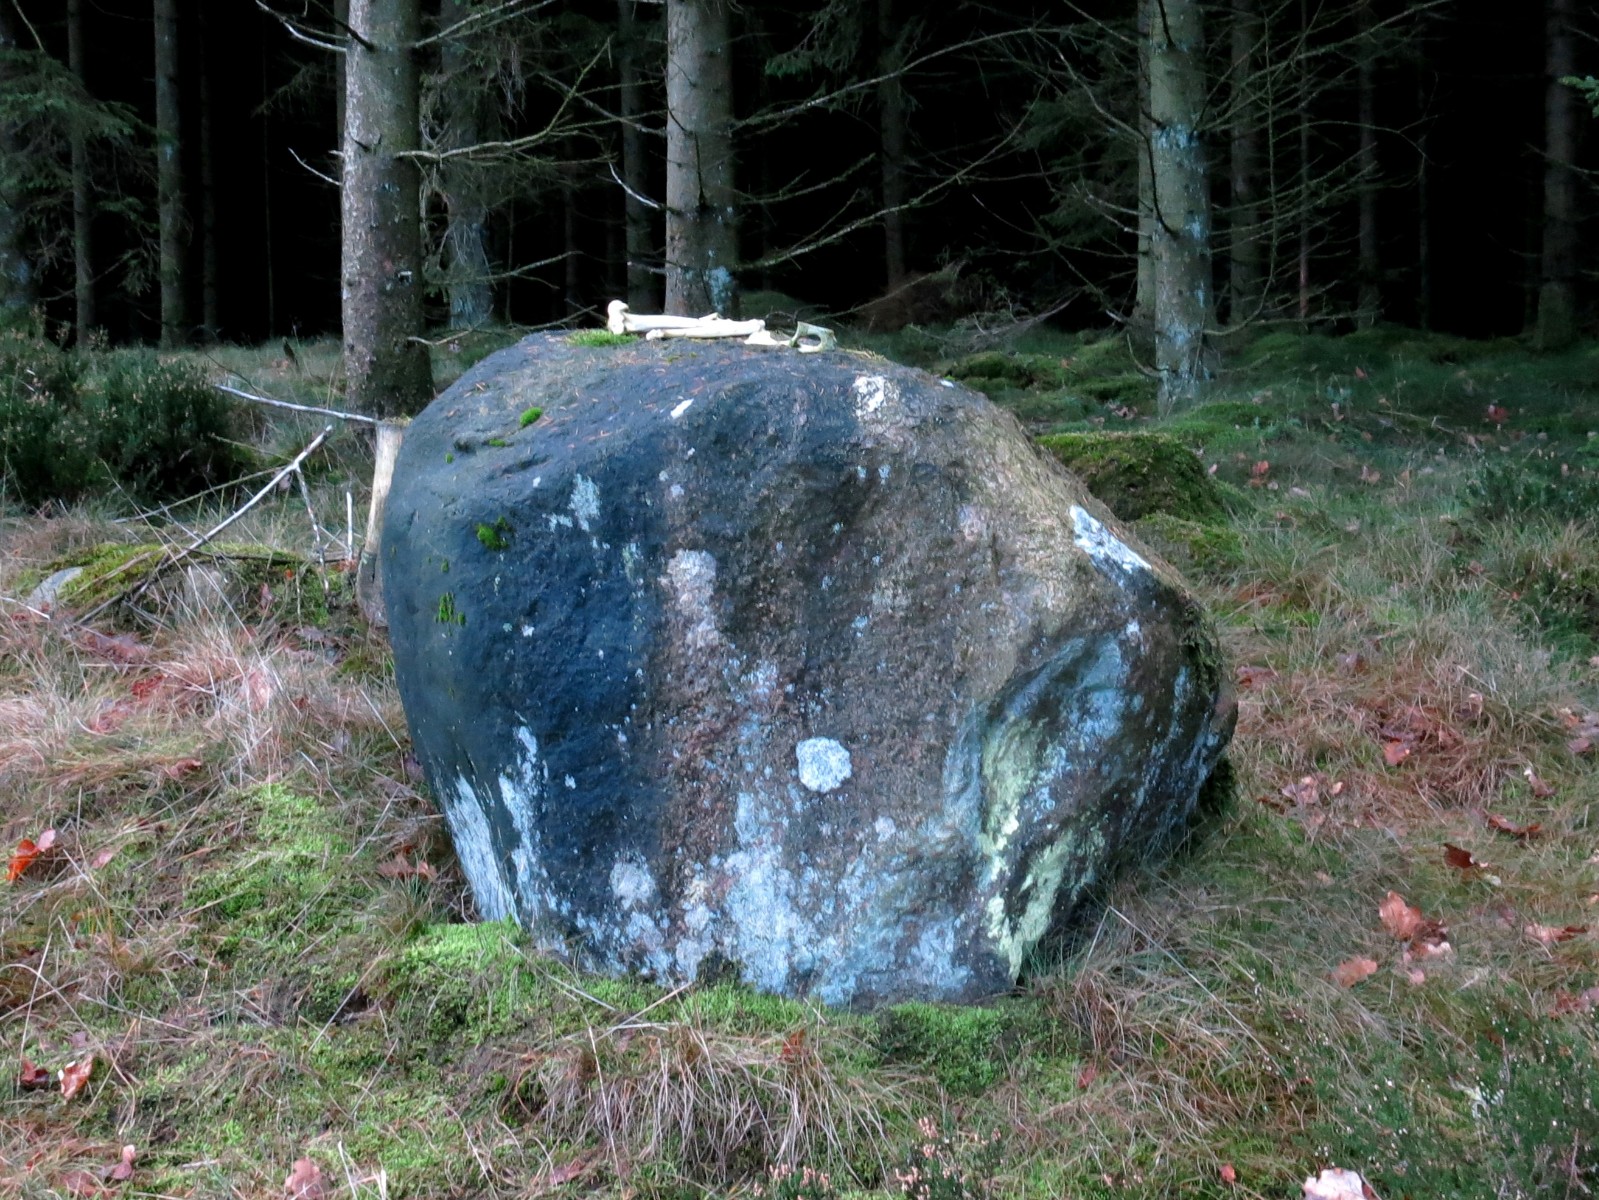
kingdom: Fungi
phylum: Ascomycota
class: Lecanoromycetes
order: Lecanorales
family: Psilolechiaceae
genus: Psilolechia
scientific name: Psilolechia lucida
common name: gul skyggelav
